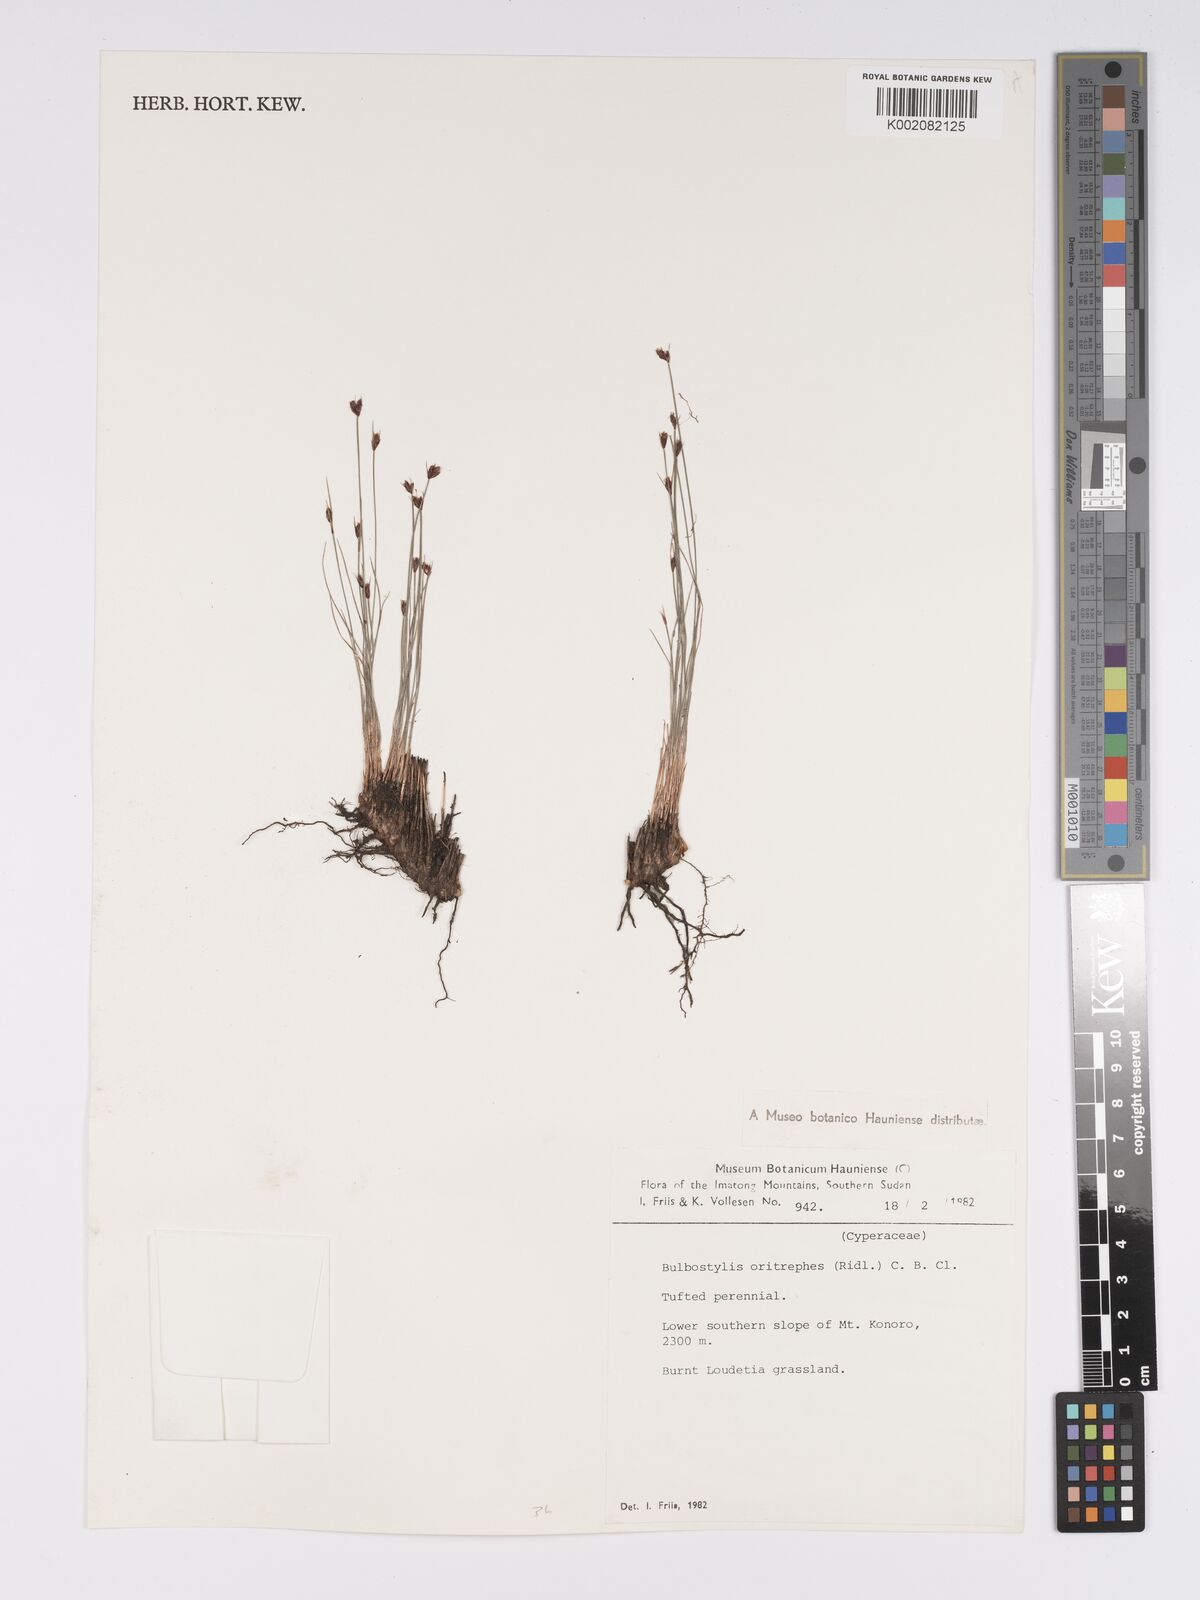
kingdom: Plantae
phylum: Tracheophyta
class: Liliopsida
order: Poales
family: Cyperaceae
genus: Bulbostylis
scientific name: Bulbostylis oritrephes
